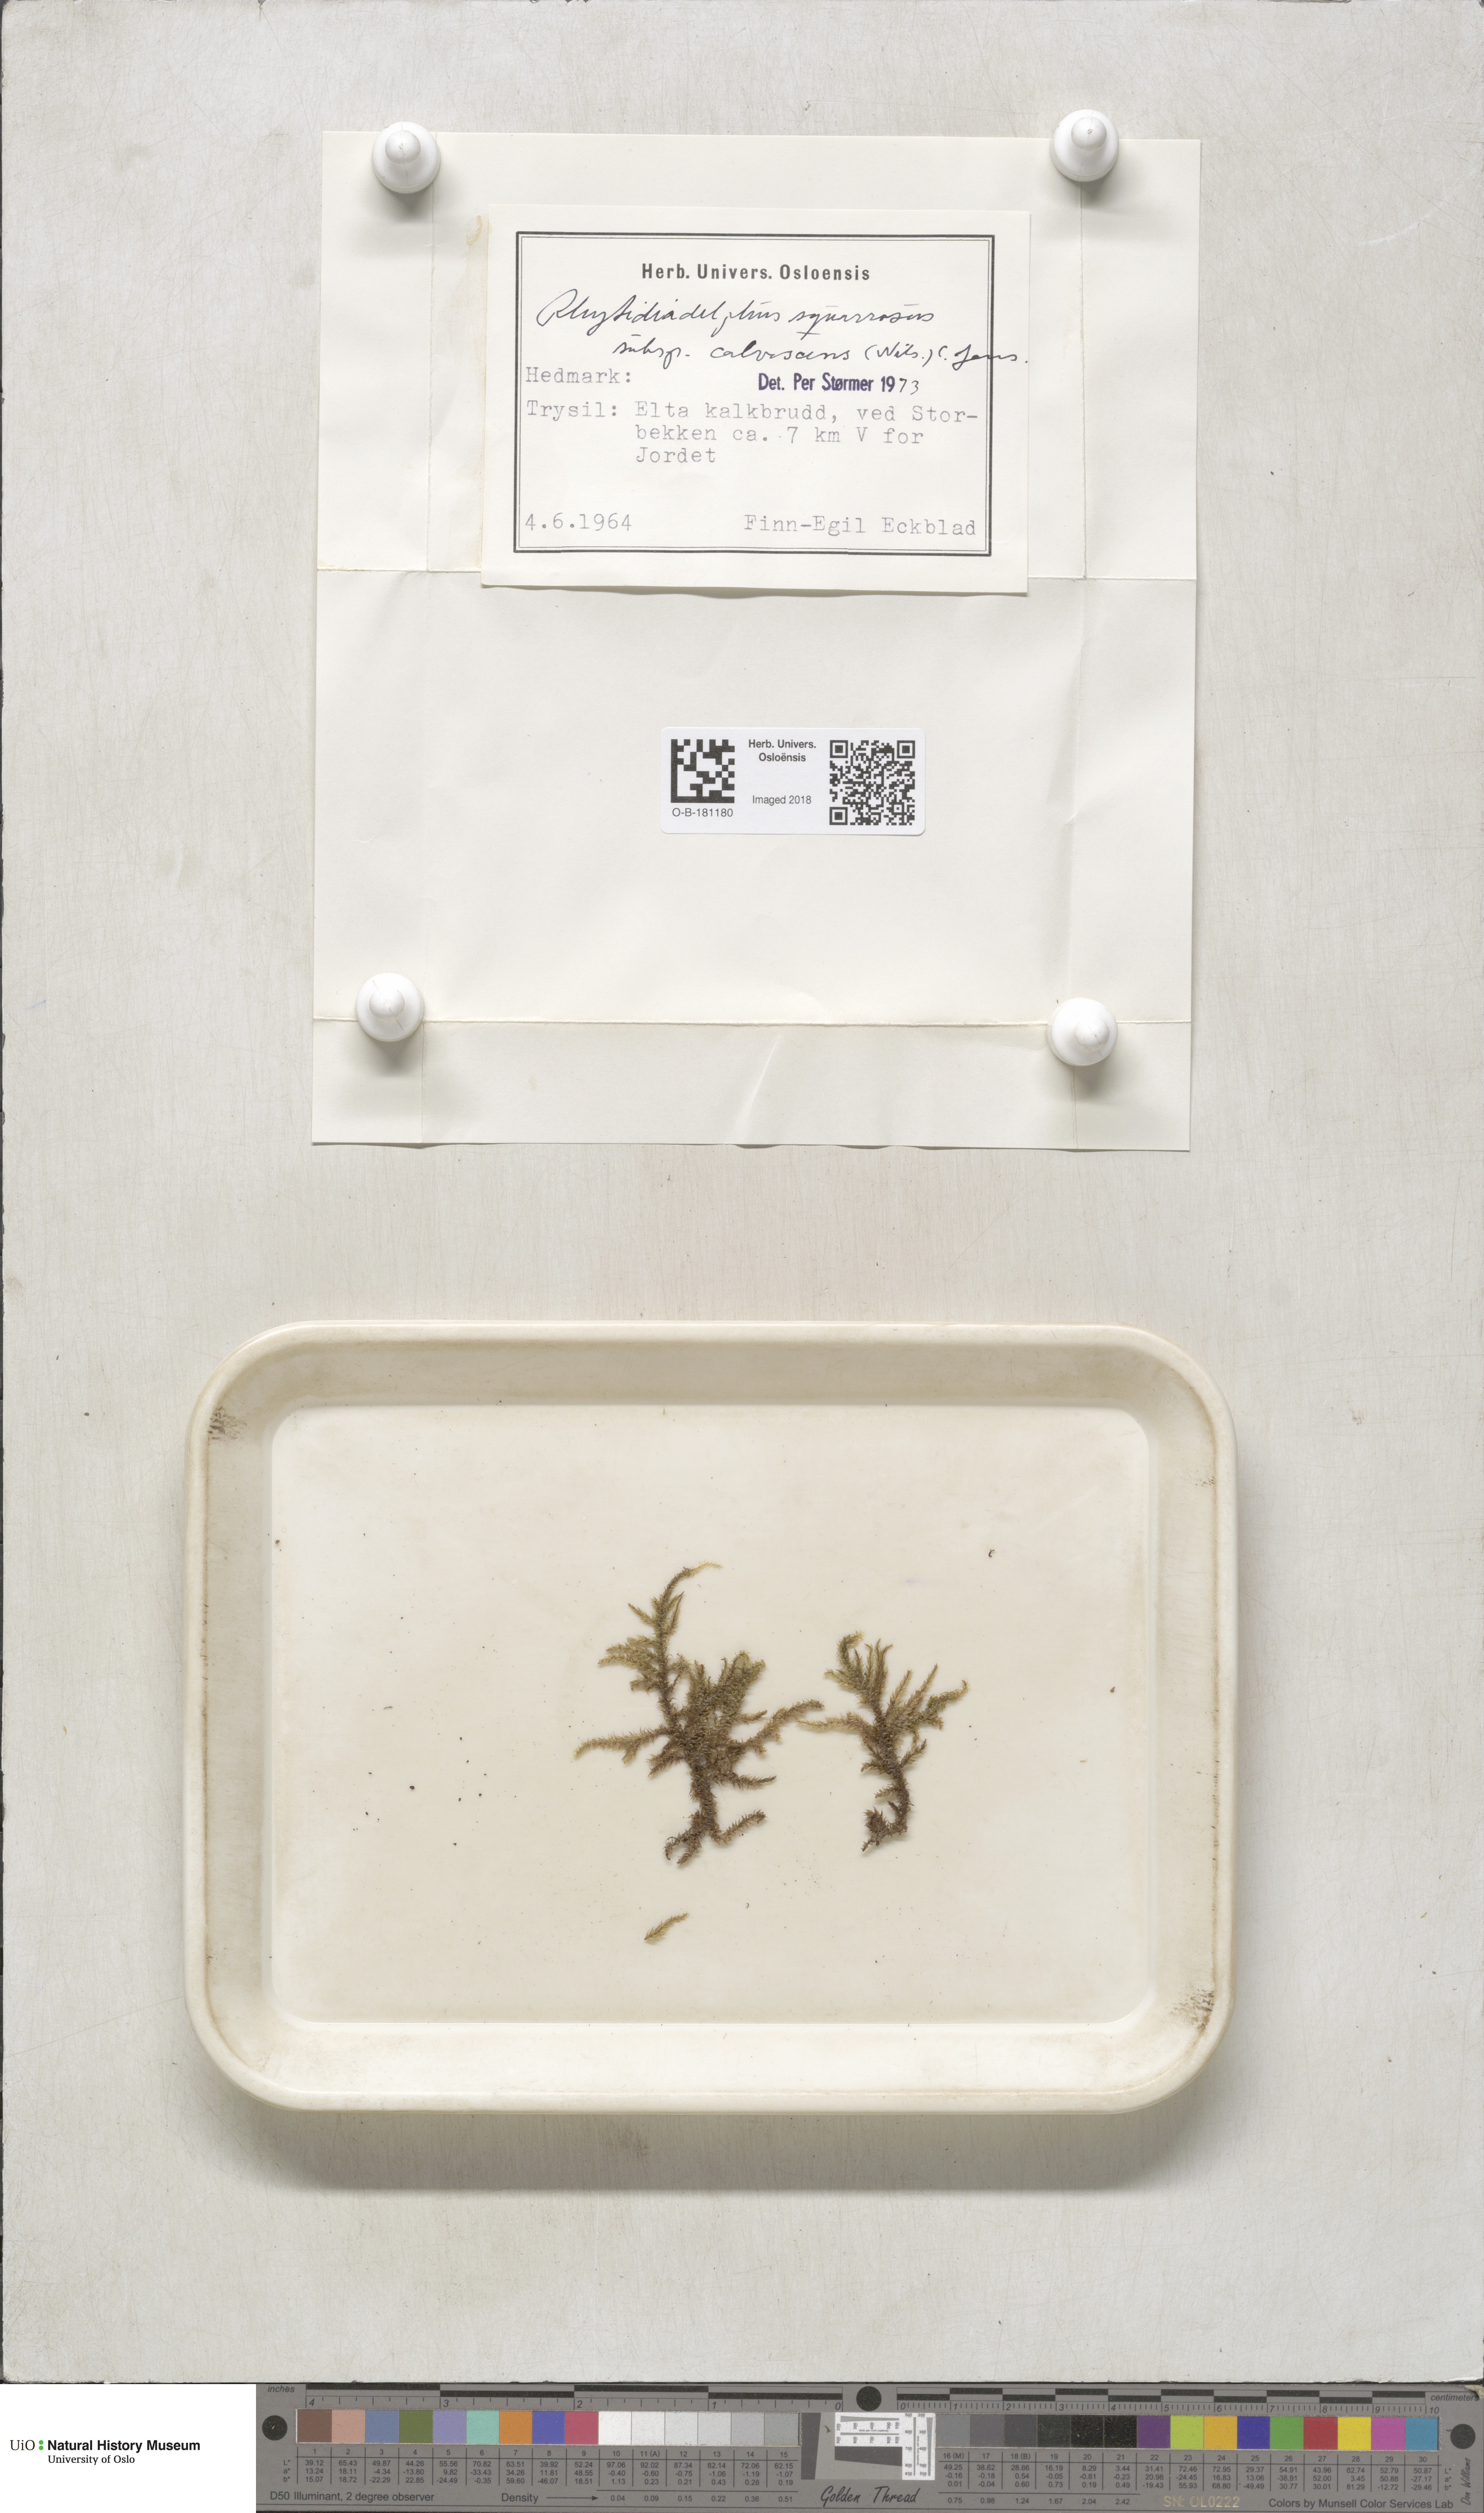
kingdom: Plantae
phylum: Bryophyta
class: Bryopsida
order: Hypnales
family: Hylocomiaceae
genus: Rhytidiadelphus
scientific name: Rhytidiadelphus squarrosus
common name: Springy turf-moss
